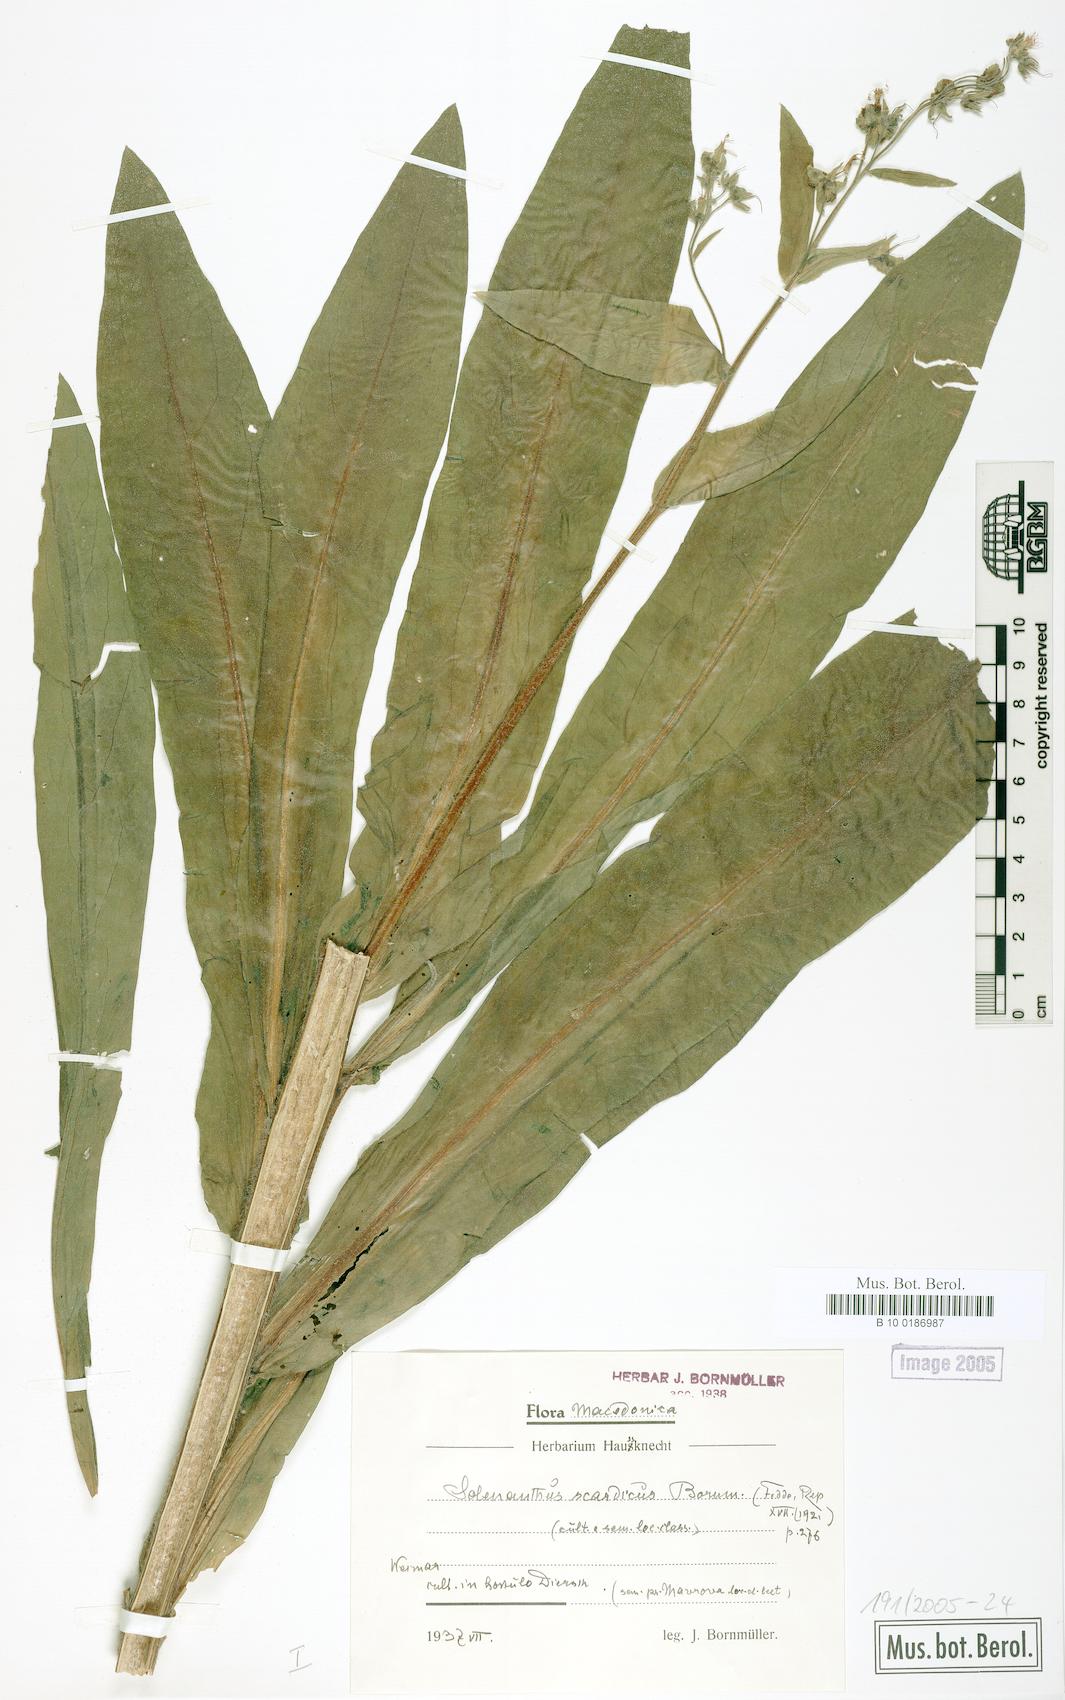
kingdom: Plantae
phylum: Tracheophyta
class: Magnoliopsida
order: Boraginales
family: Boraginaceae
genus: Solenanthus
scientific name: Solenanthus scardicus
